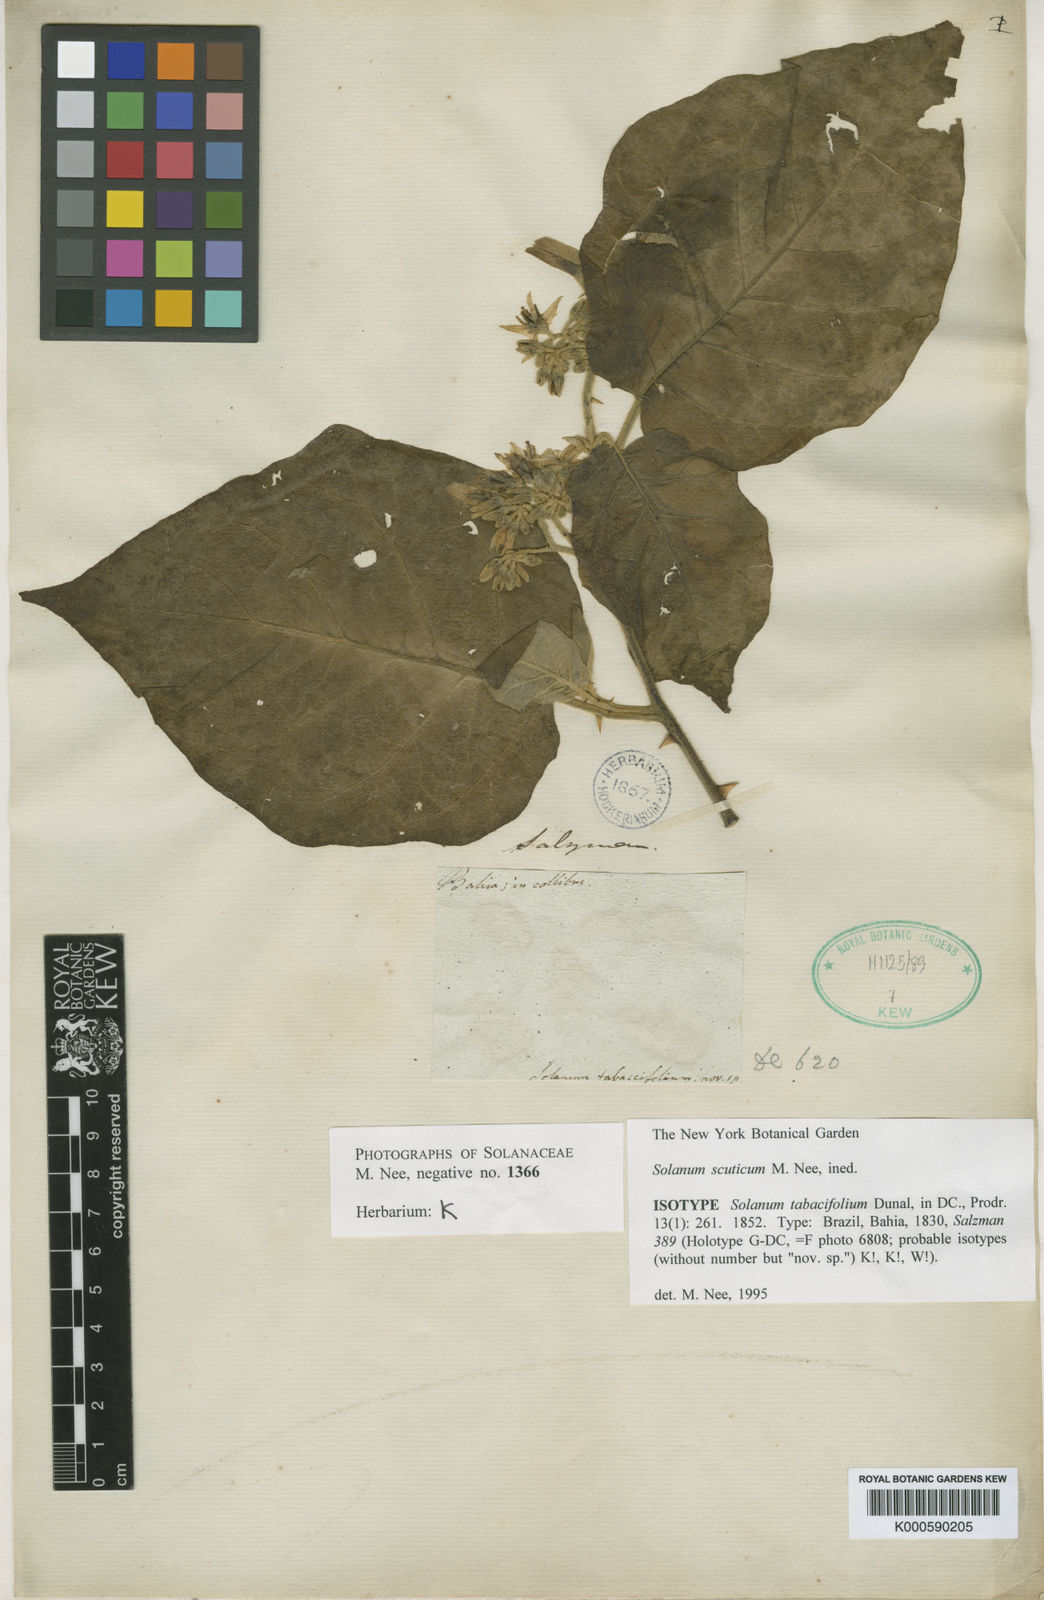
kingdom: Plantae
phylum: Tracheophyta
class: Magnoliopsida
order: Solanales
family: Solanaceae
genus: Solanum
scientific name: Solanum scuticum
